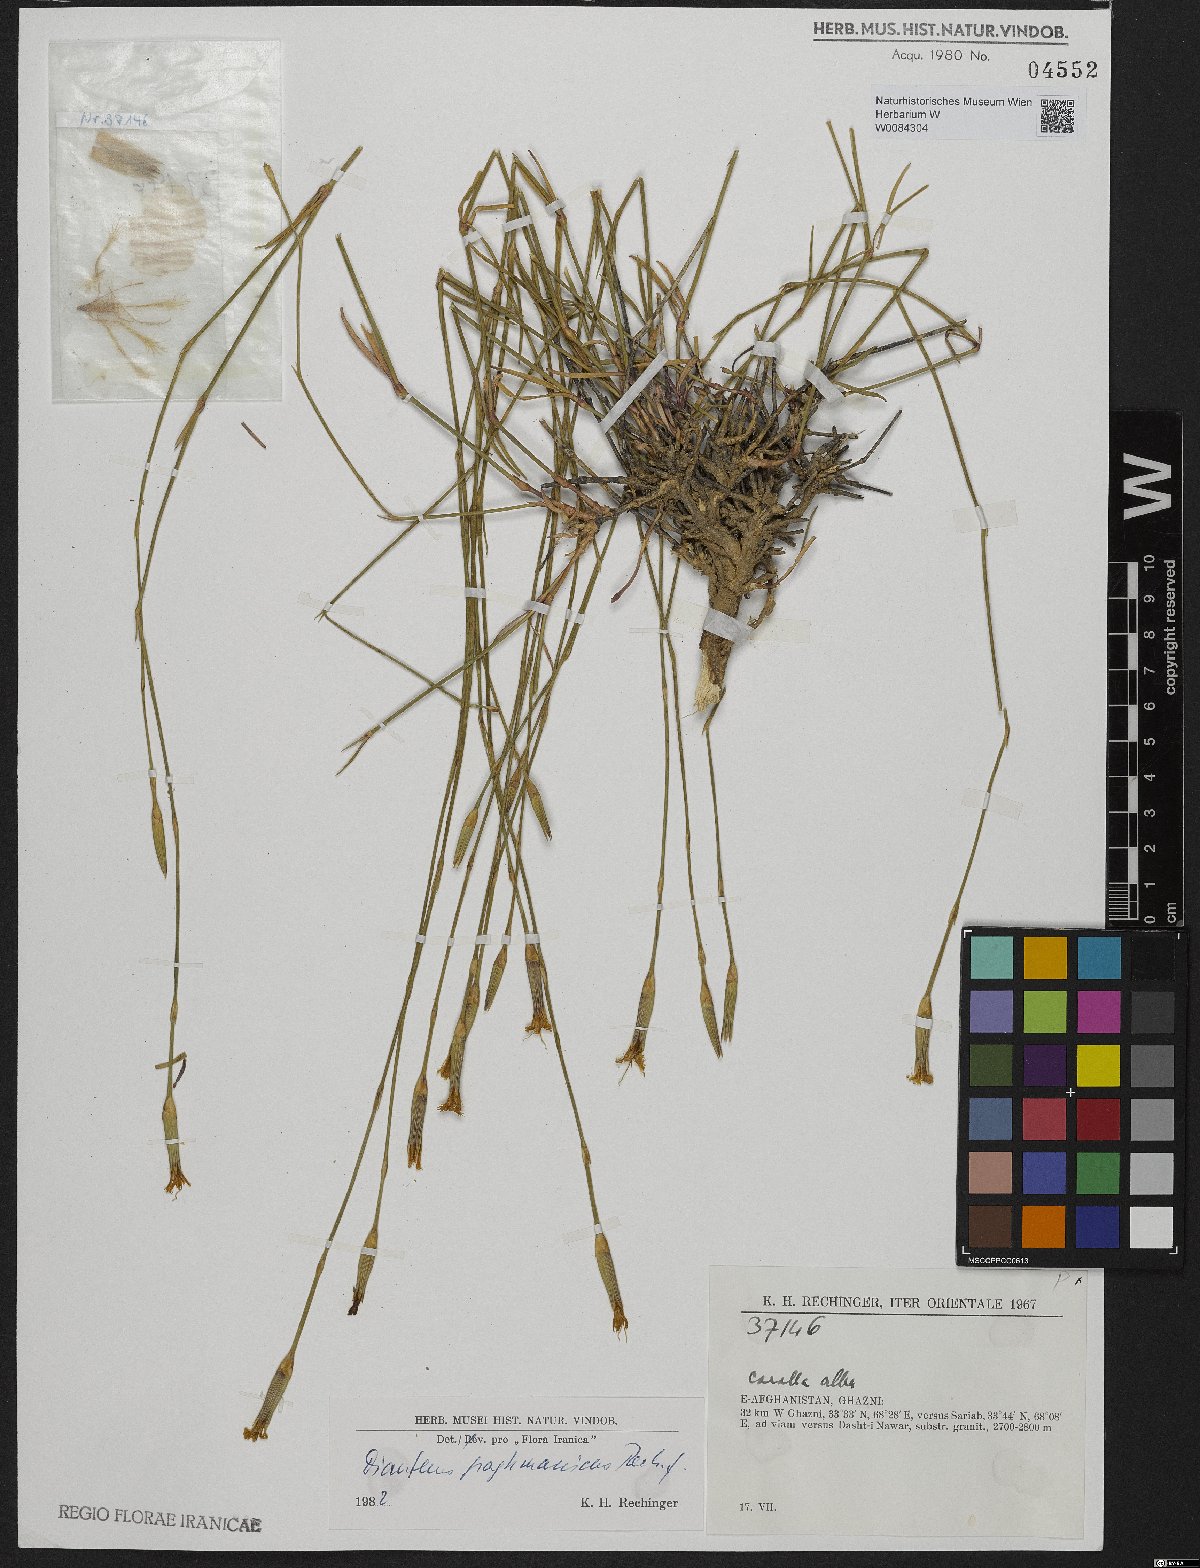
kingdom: Plantae
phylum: Tracheophyta
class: Magnoliopsida
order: Caryophyllales
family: Caryophyllaceae
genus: Dianthus
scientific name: Dianthus paghmanicus
